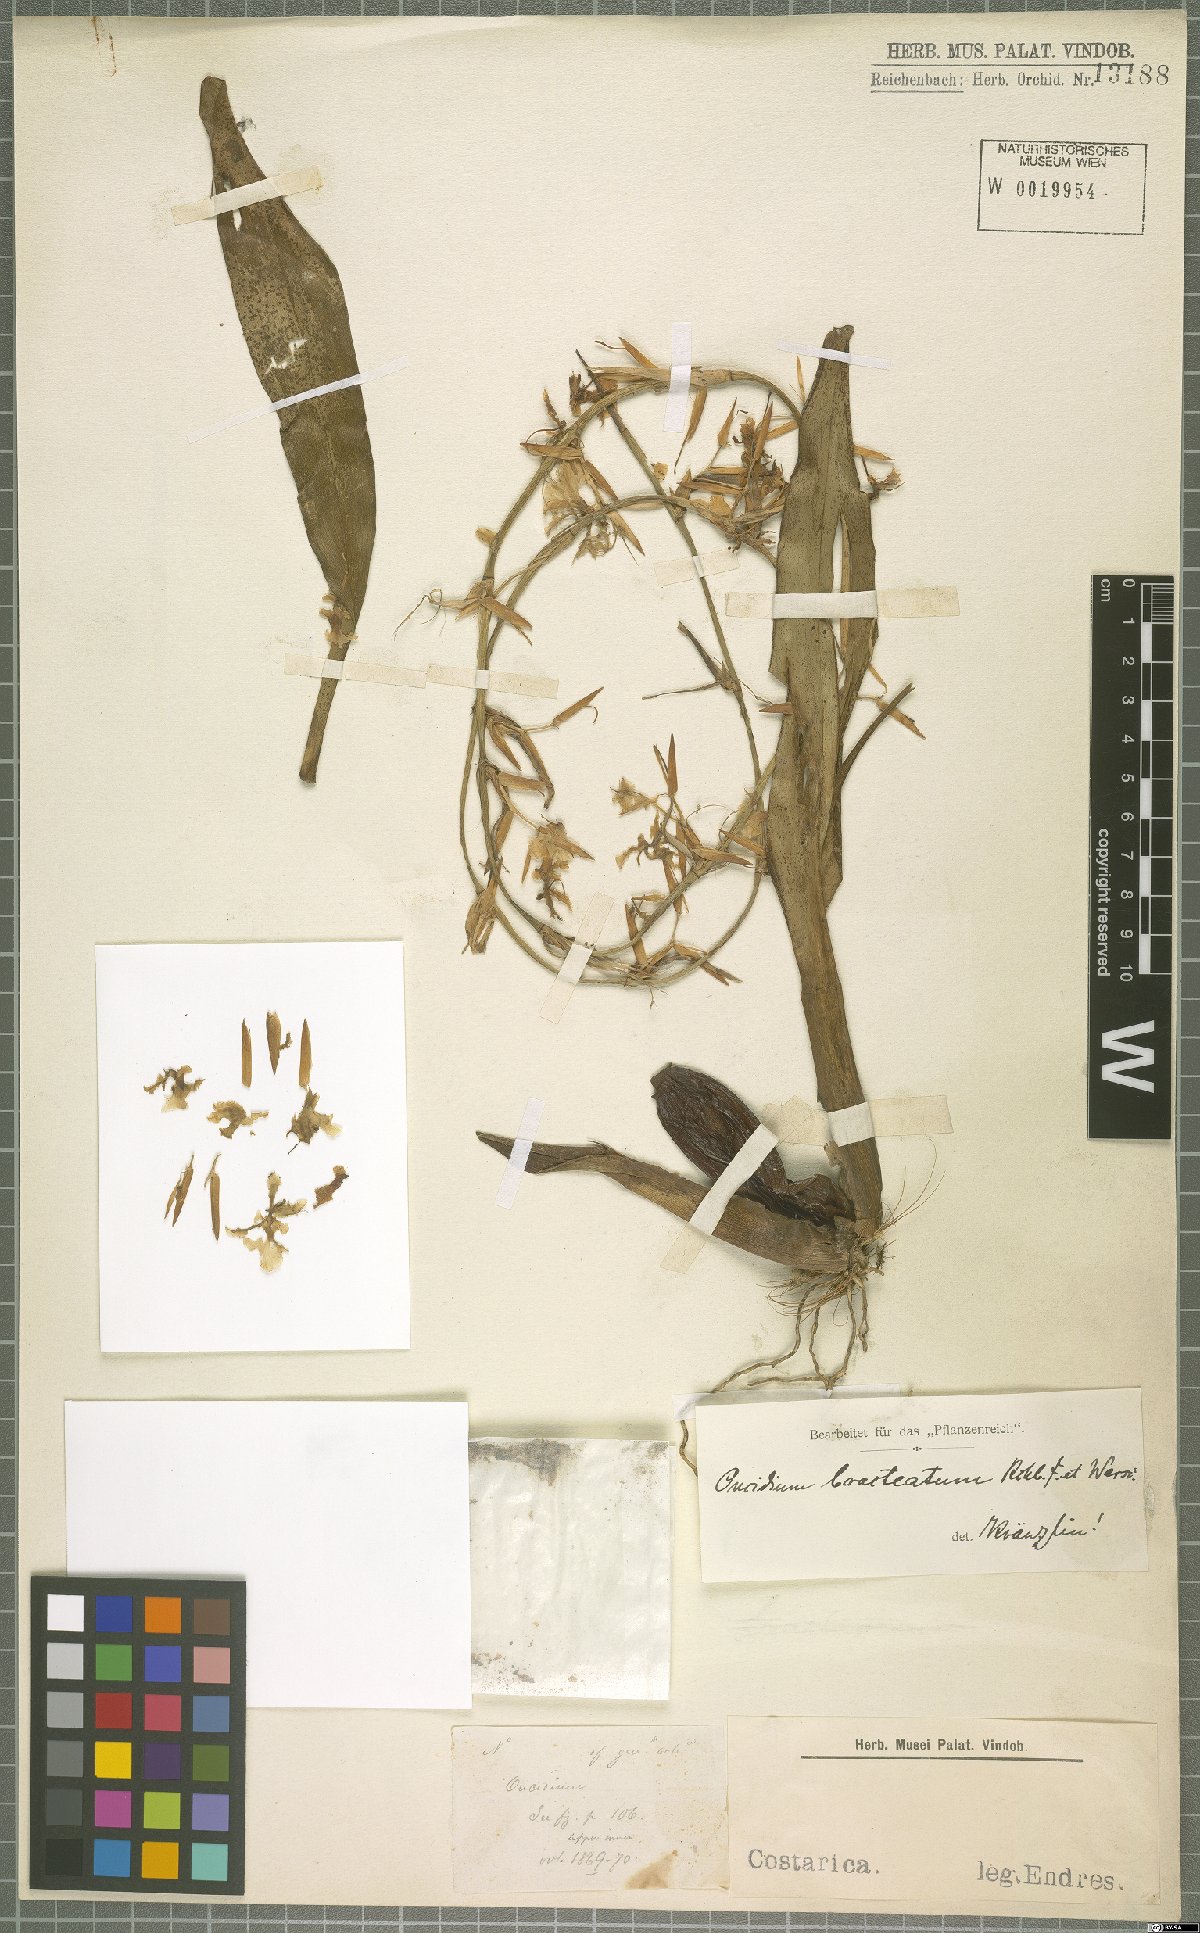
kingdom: Plantae
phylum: Tracheophyta
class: Liliopsida
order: Asparagales
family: Orchidaceae
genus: Oncidium
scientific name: Oncidium bracteatum
